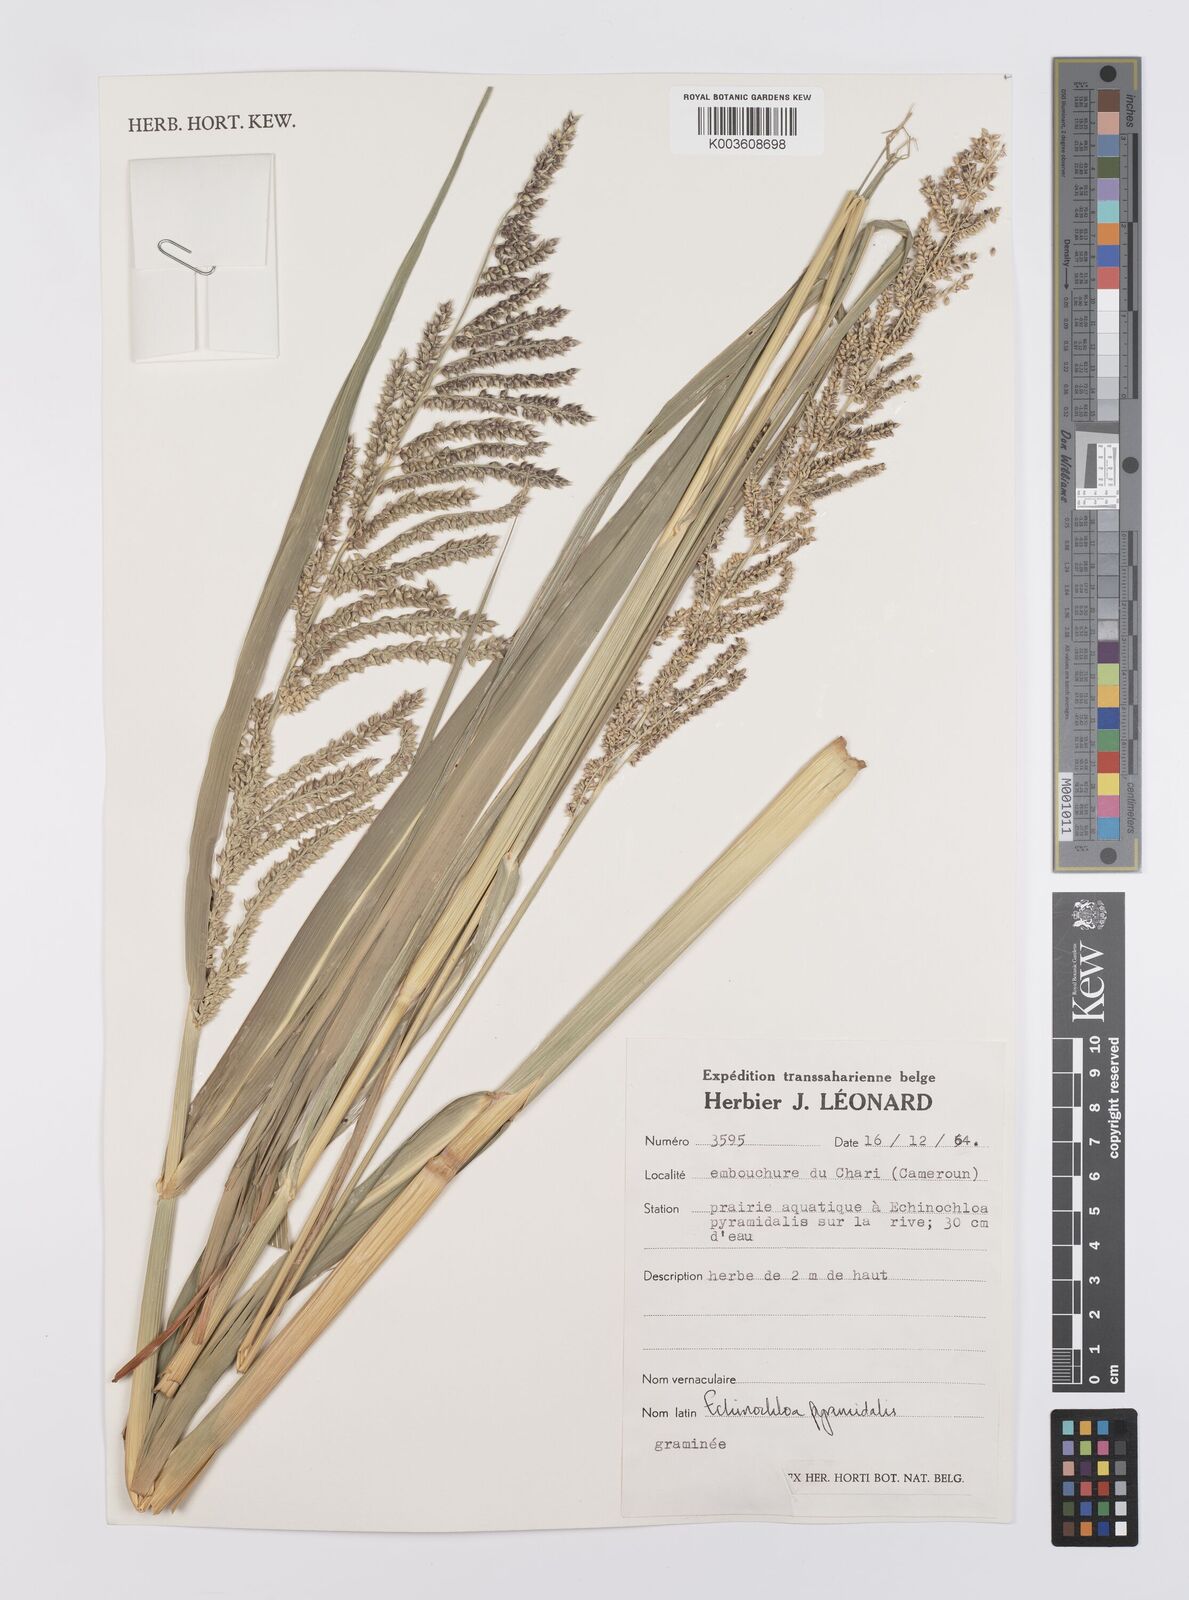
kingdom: Plantae
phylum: Tracheophyta
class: Liliopsida
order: Poales
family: Poaceae
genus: Echinochloa
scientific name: Echinochloa pyramidalis
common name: Antelope grass
